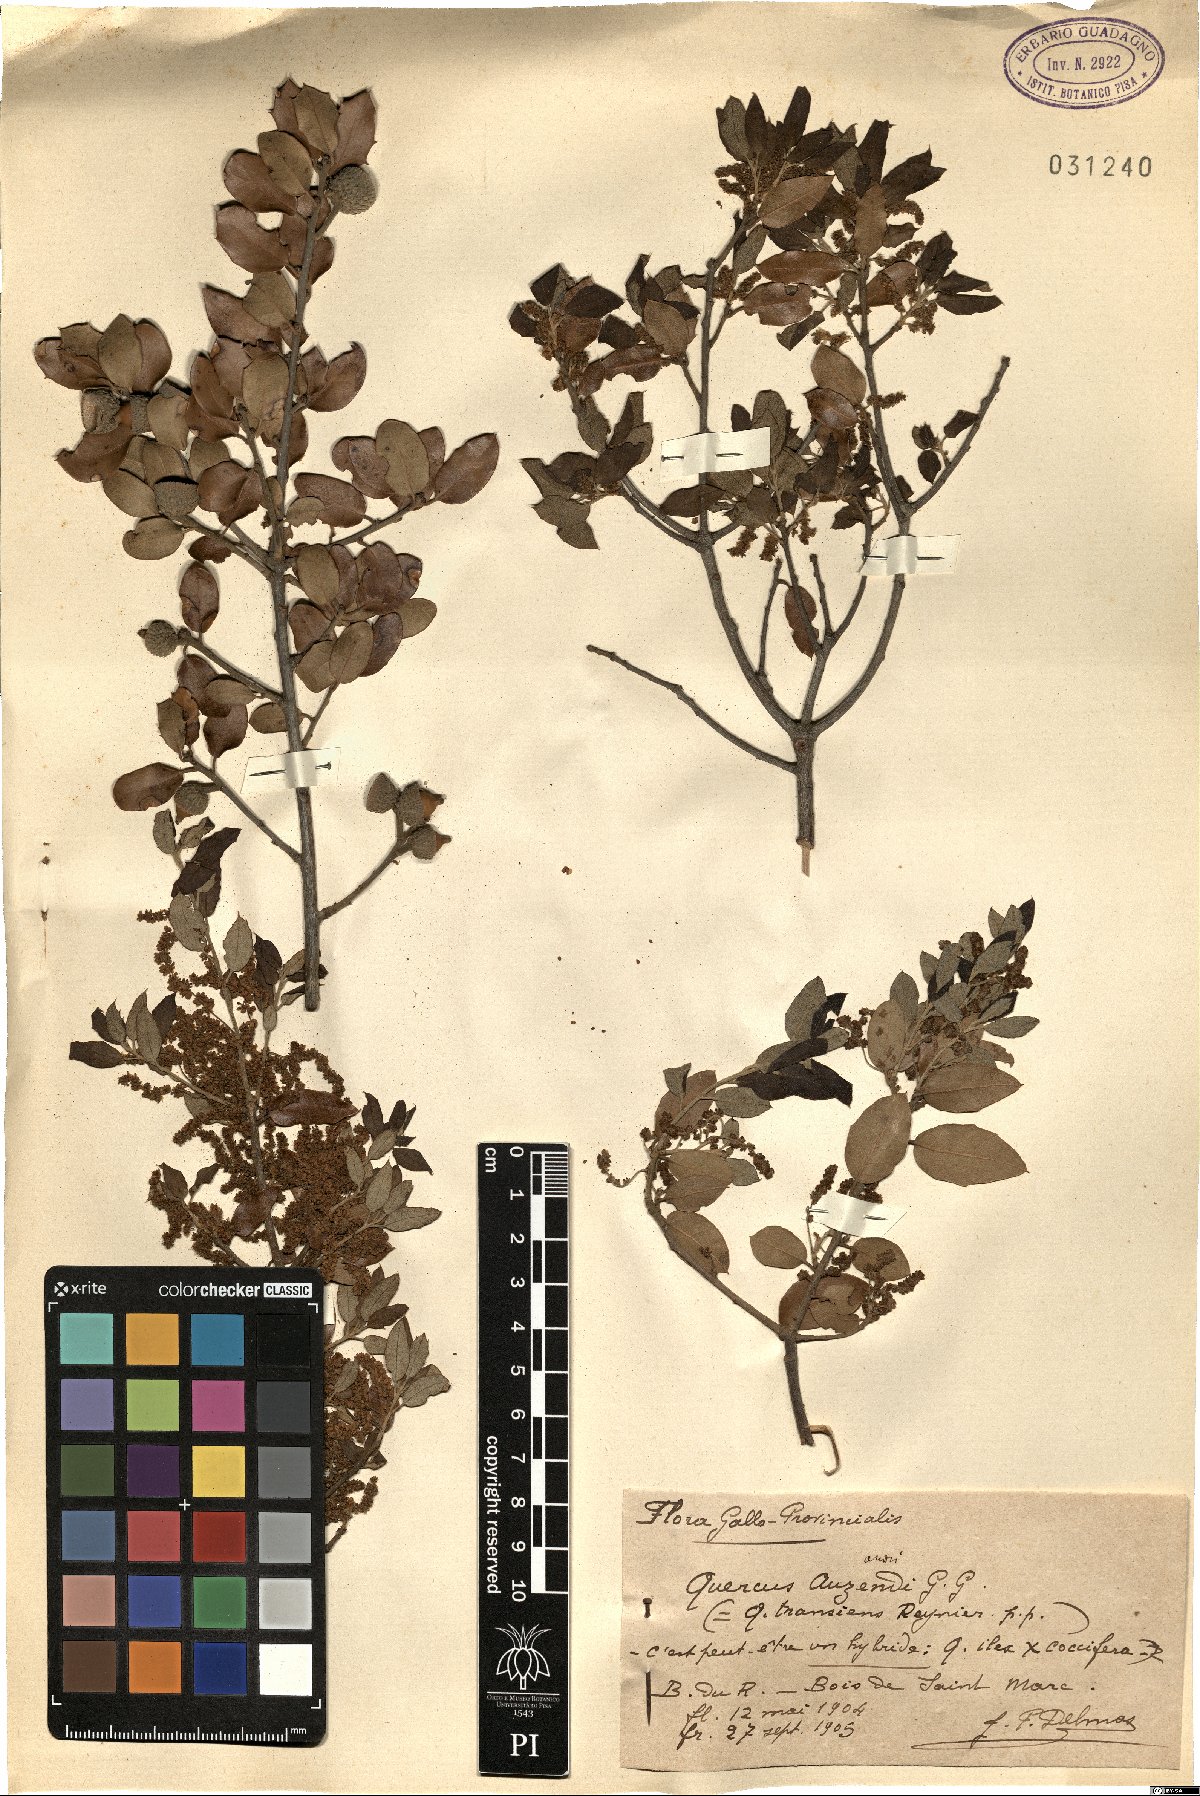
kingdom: Plantae
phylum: Tracheophyta
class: Magnoliopsida
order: Fagales
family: Fagaceae
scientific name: Fagaceae
